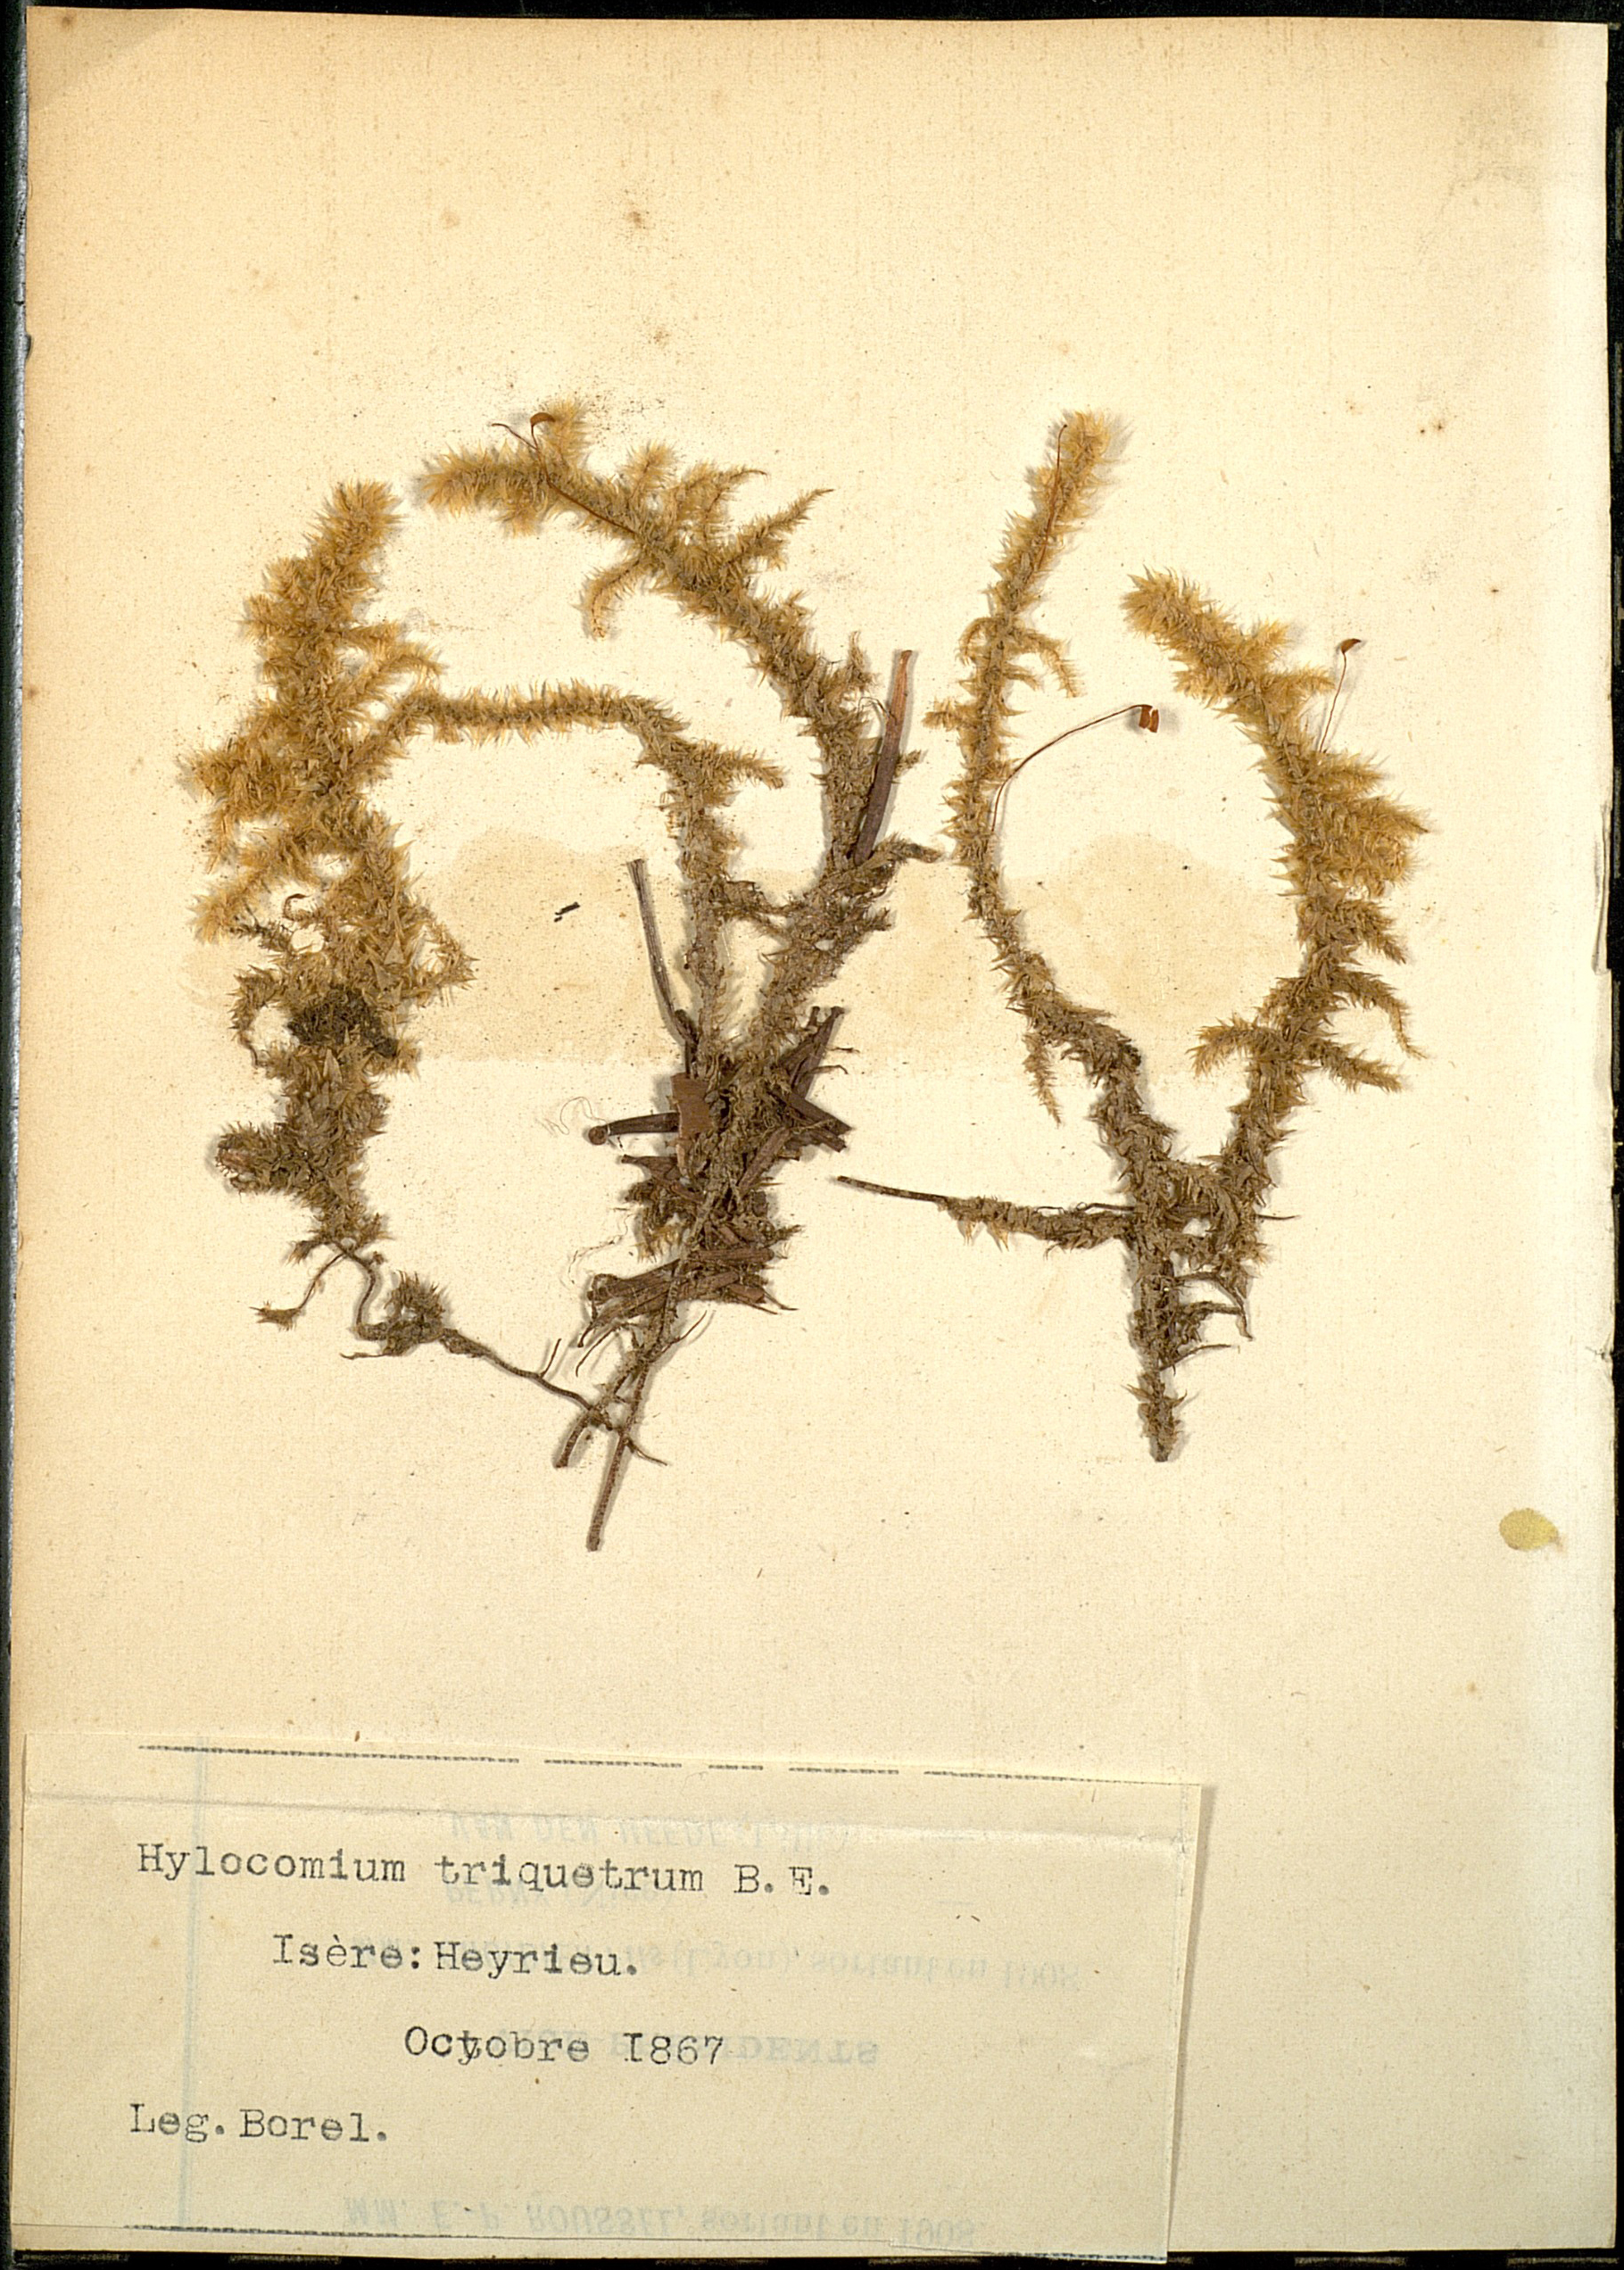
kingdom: Plantae
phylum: Bryophyta
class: Bryopsida
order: Hypnales
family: Hylocomiaceae
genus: Hylocomiadelphus
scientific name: Hylocomiadelphus triquetrus
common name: Rough goose neck moss
